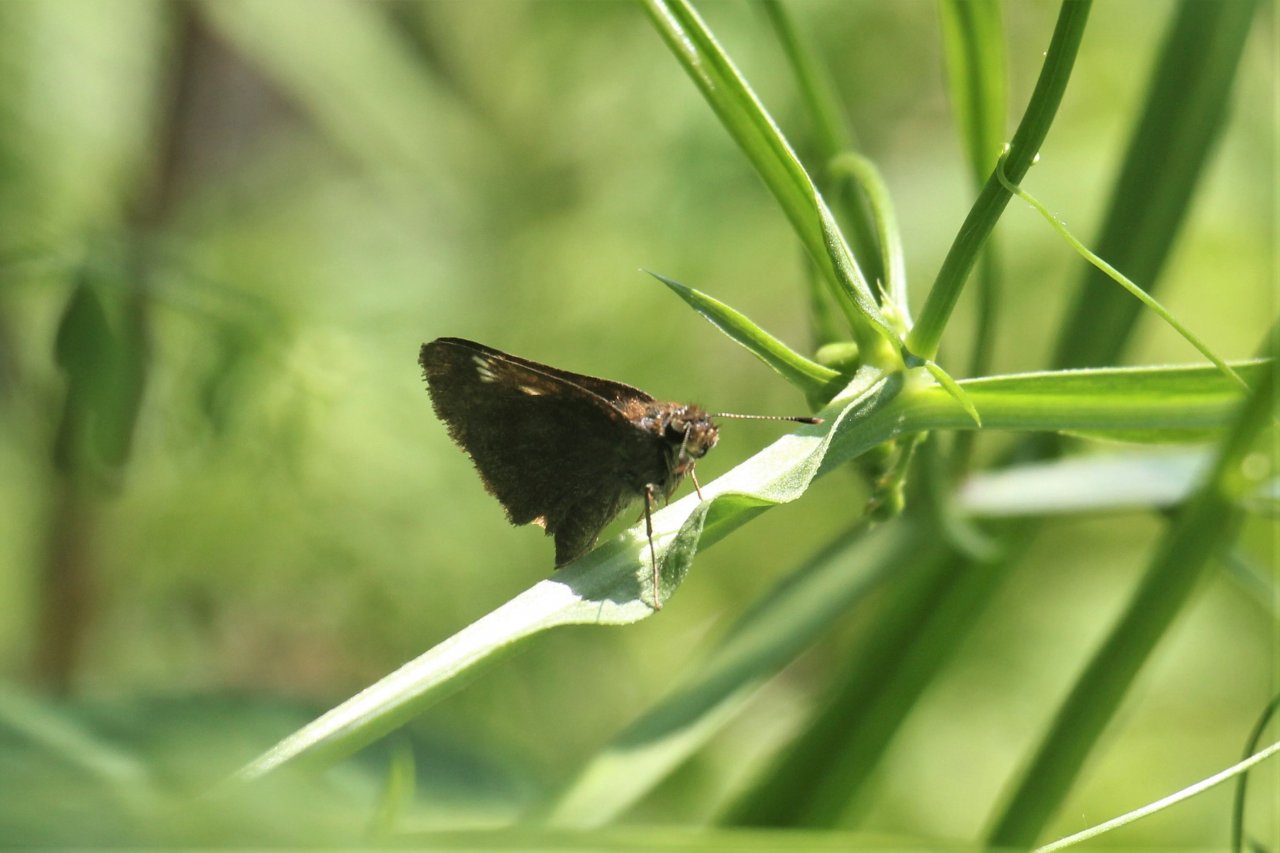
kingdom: Animalia
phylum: Arthropoda
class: Insecta
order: Lepidoptera
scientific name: Lepidoptera
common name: Butterflies
